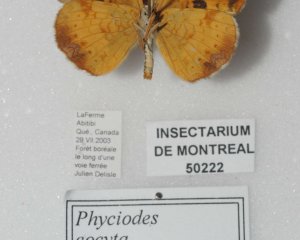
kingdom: Animalia
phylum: Arthropoda
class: Insecta
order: Lepidoptera
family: Nymphalidae
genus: Phyciodes
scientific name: Phyciodes tharos
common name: Northern Crescent
